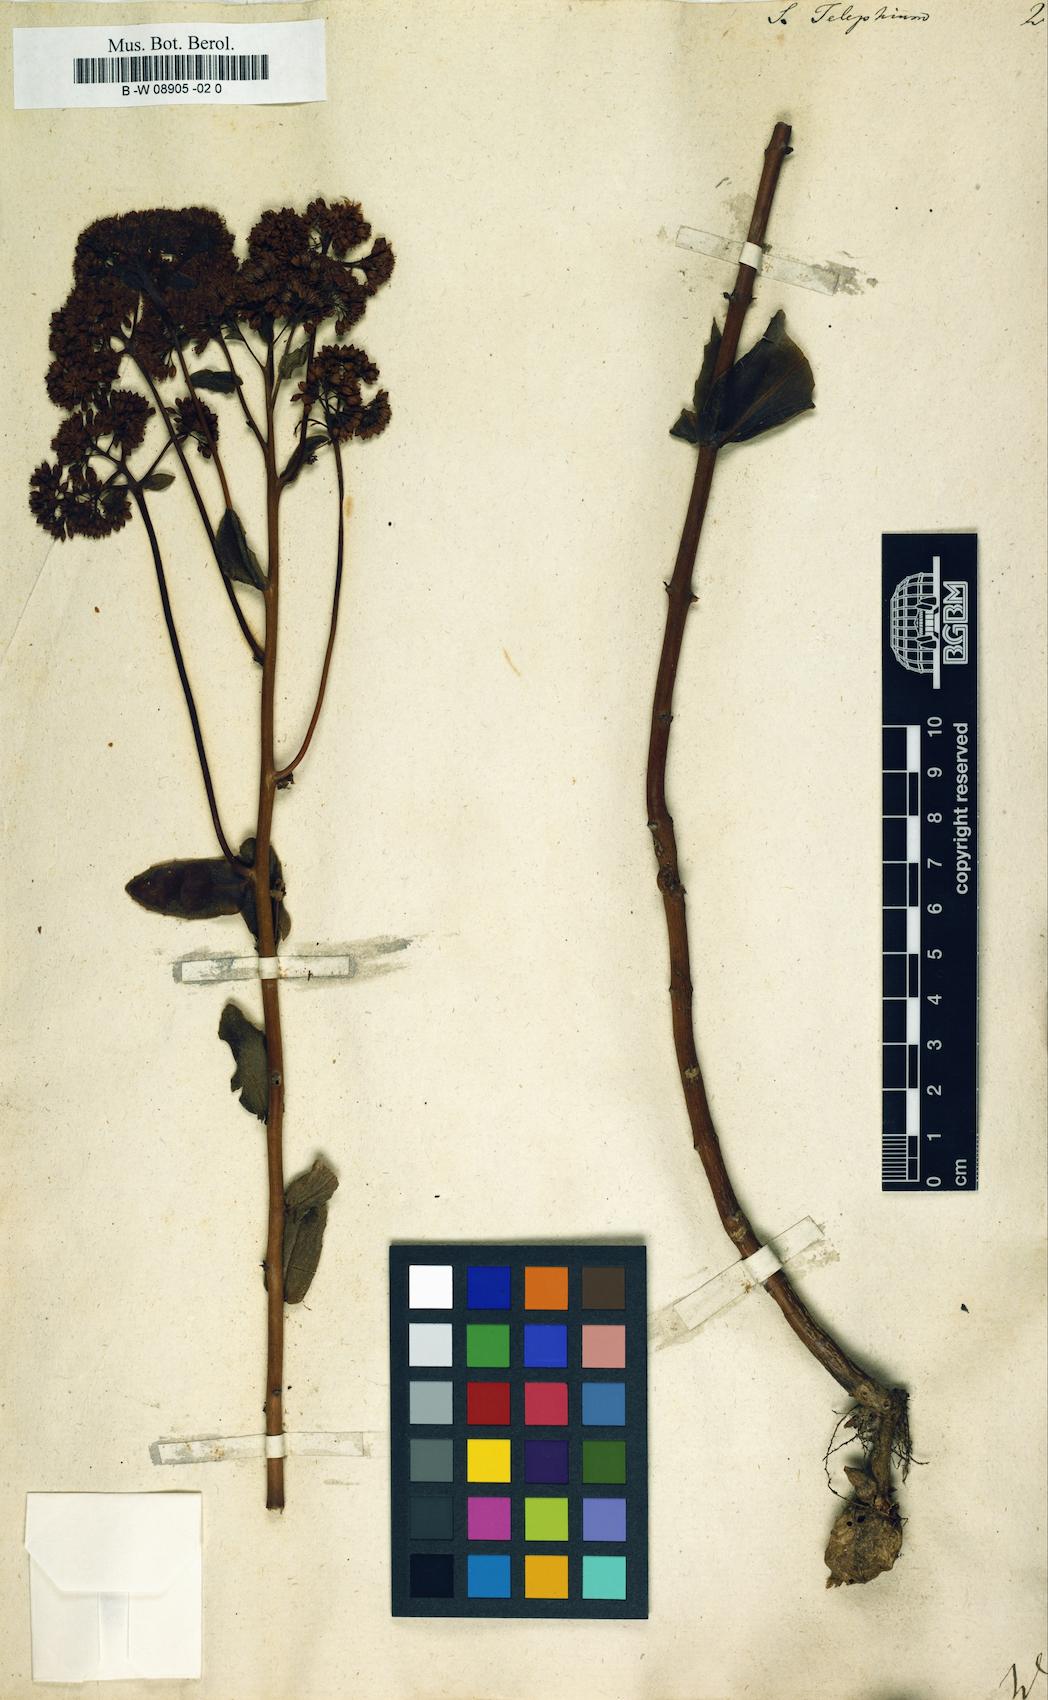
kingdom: Plantae
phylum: Tracheophyta
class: Magnoliopsida
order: Saxifragales
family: Crassulaceae
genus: Hylotelephium
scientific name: Hylotelephium telephium
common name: Live-forever
